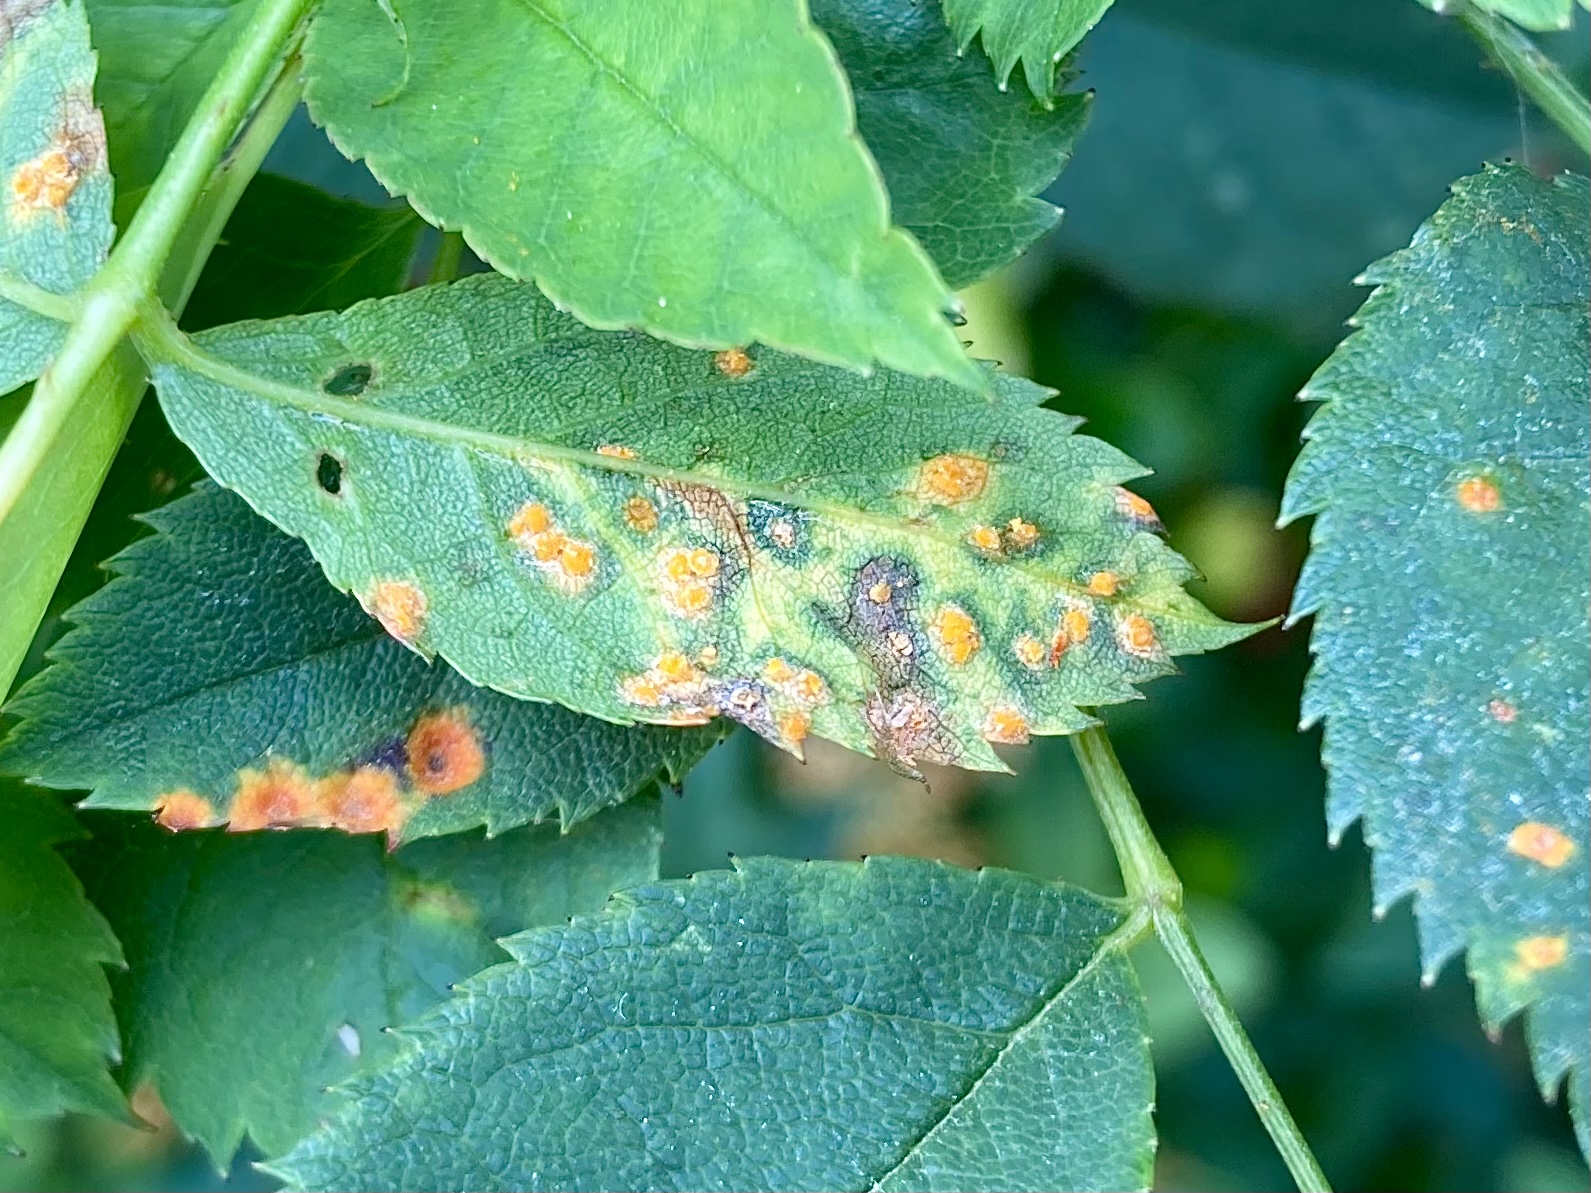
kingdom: Fungi
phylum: Basidiomycota
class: Pucciniomycetes
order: Pucciniales
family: Phragmidiaceae
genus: Phragmidium
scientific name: Phragmidium
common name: flercellerust
